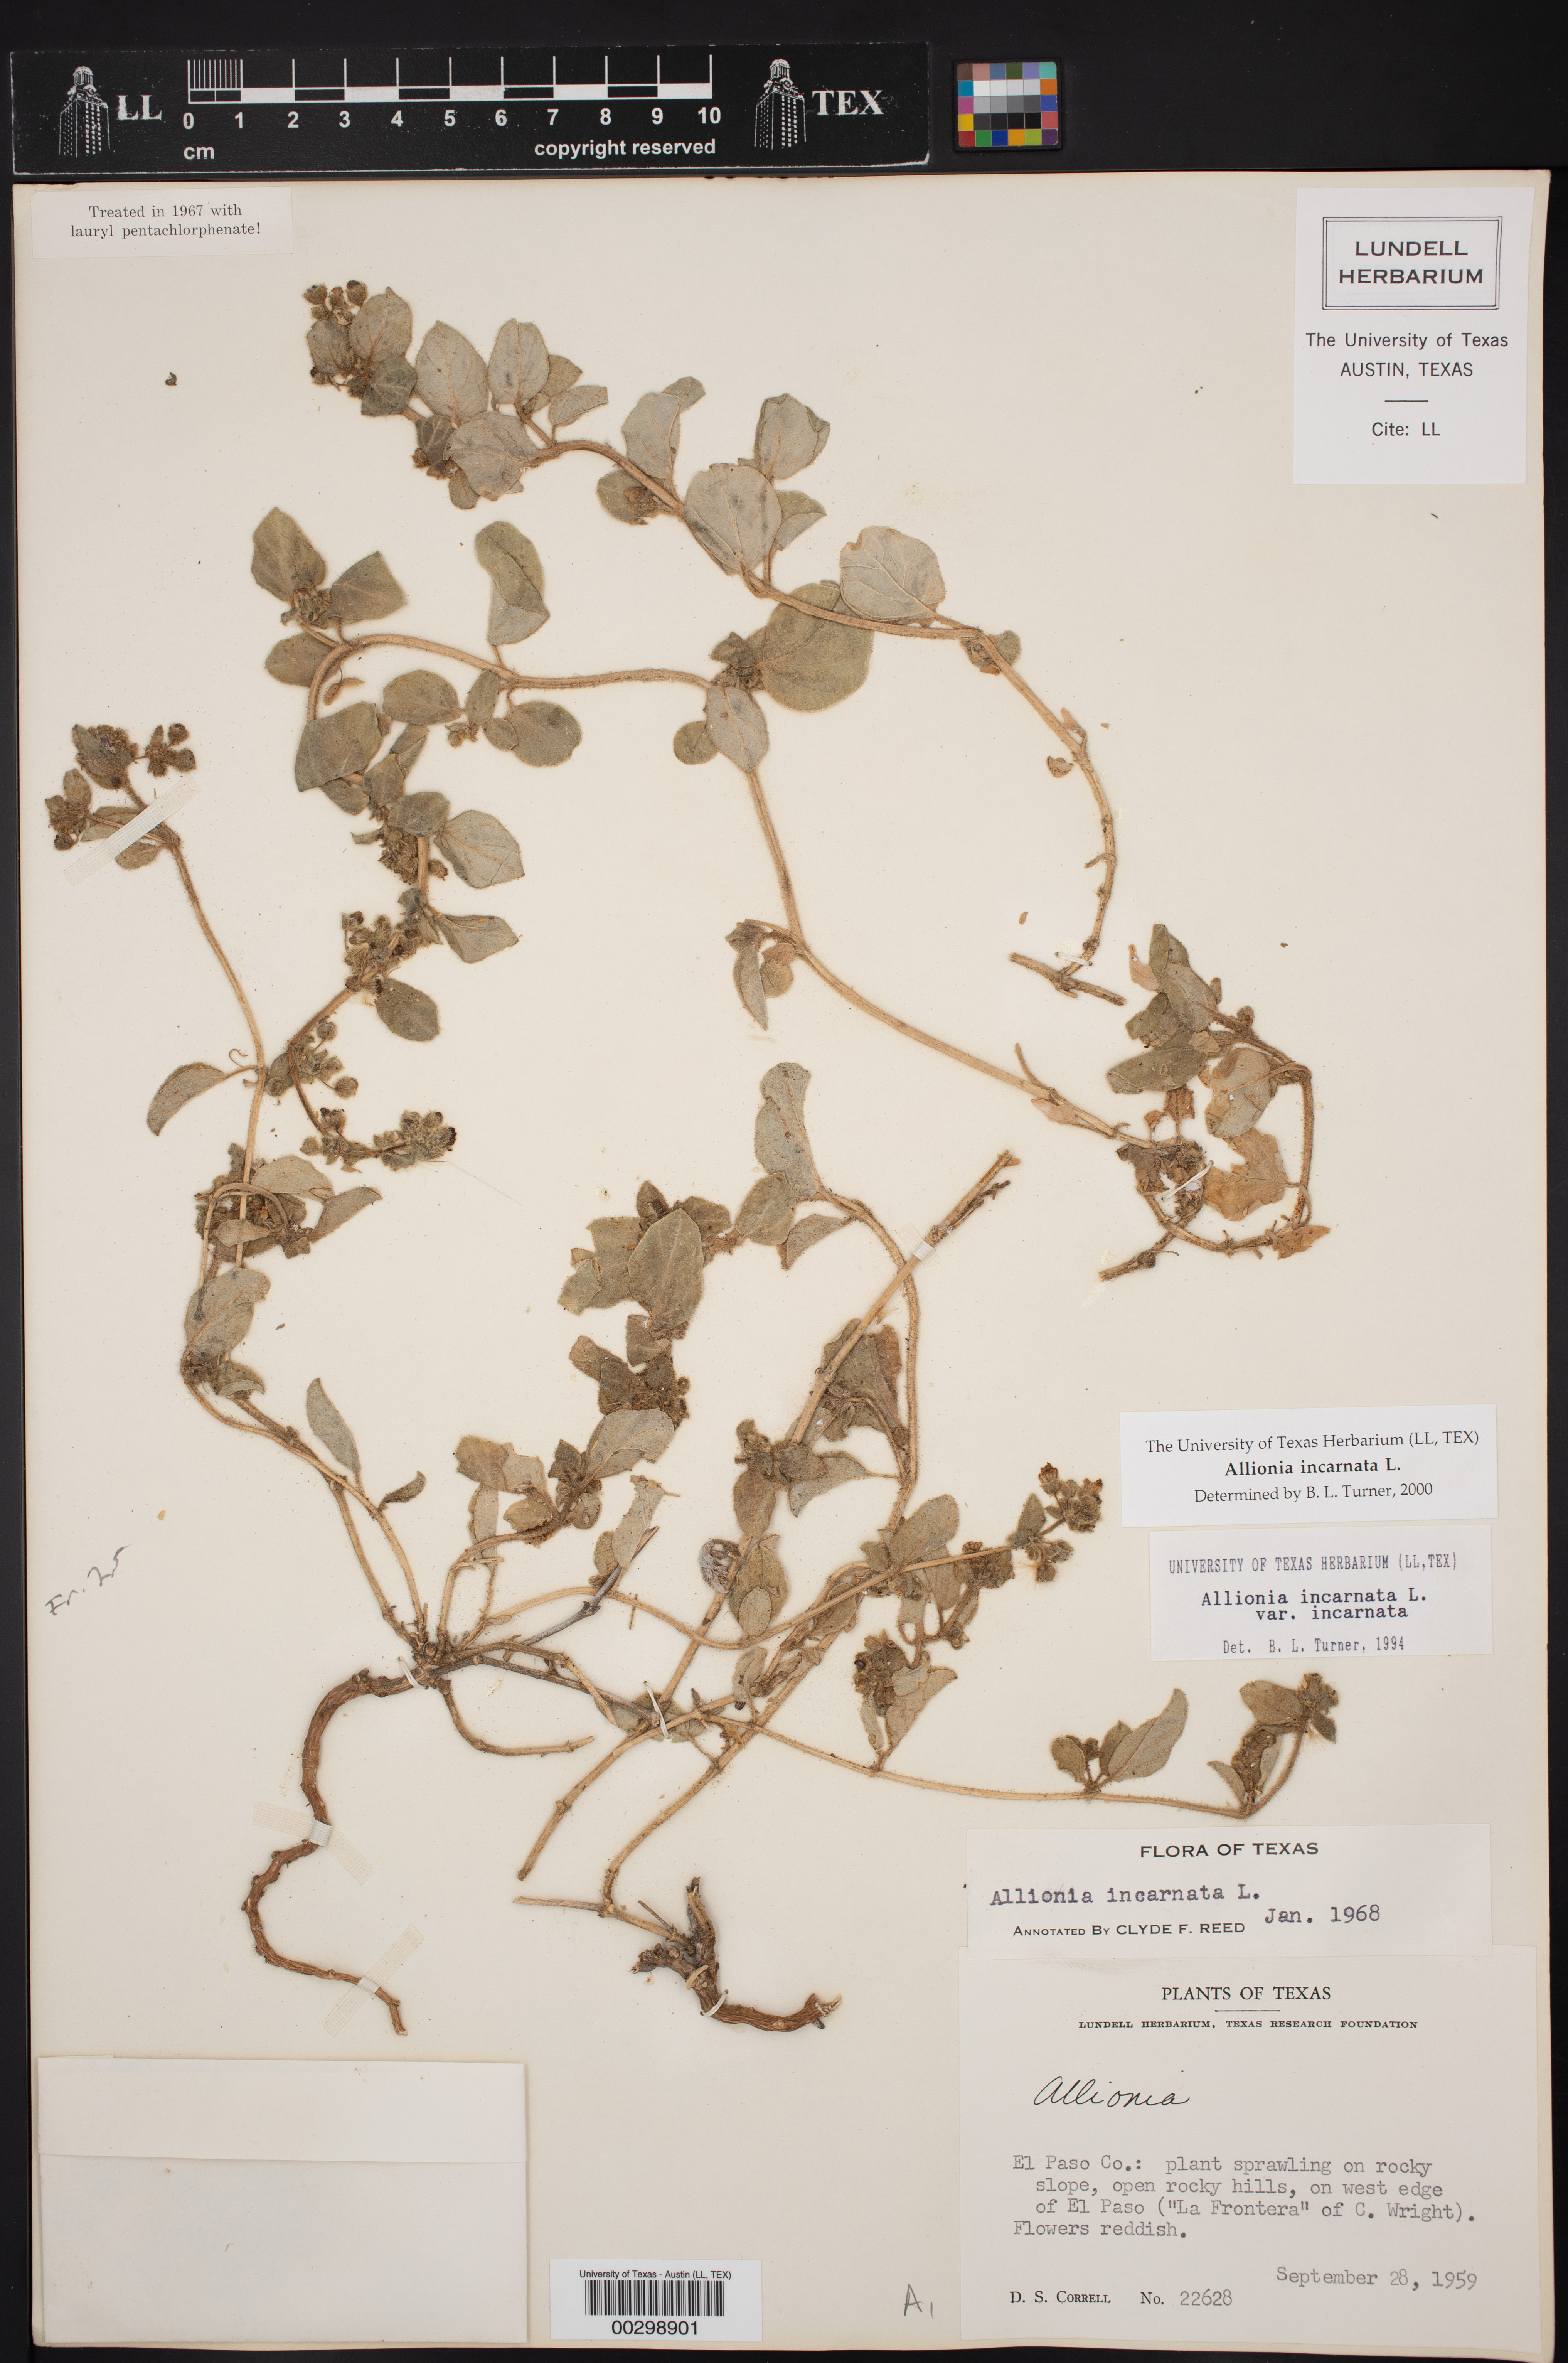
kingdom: Plantae
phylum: Tracheophyta
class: Magnoliopsida
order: Caryophyllales
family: Nyctaginaceae
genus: Allionia
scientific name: Allionia incarnata
